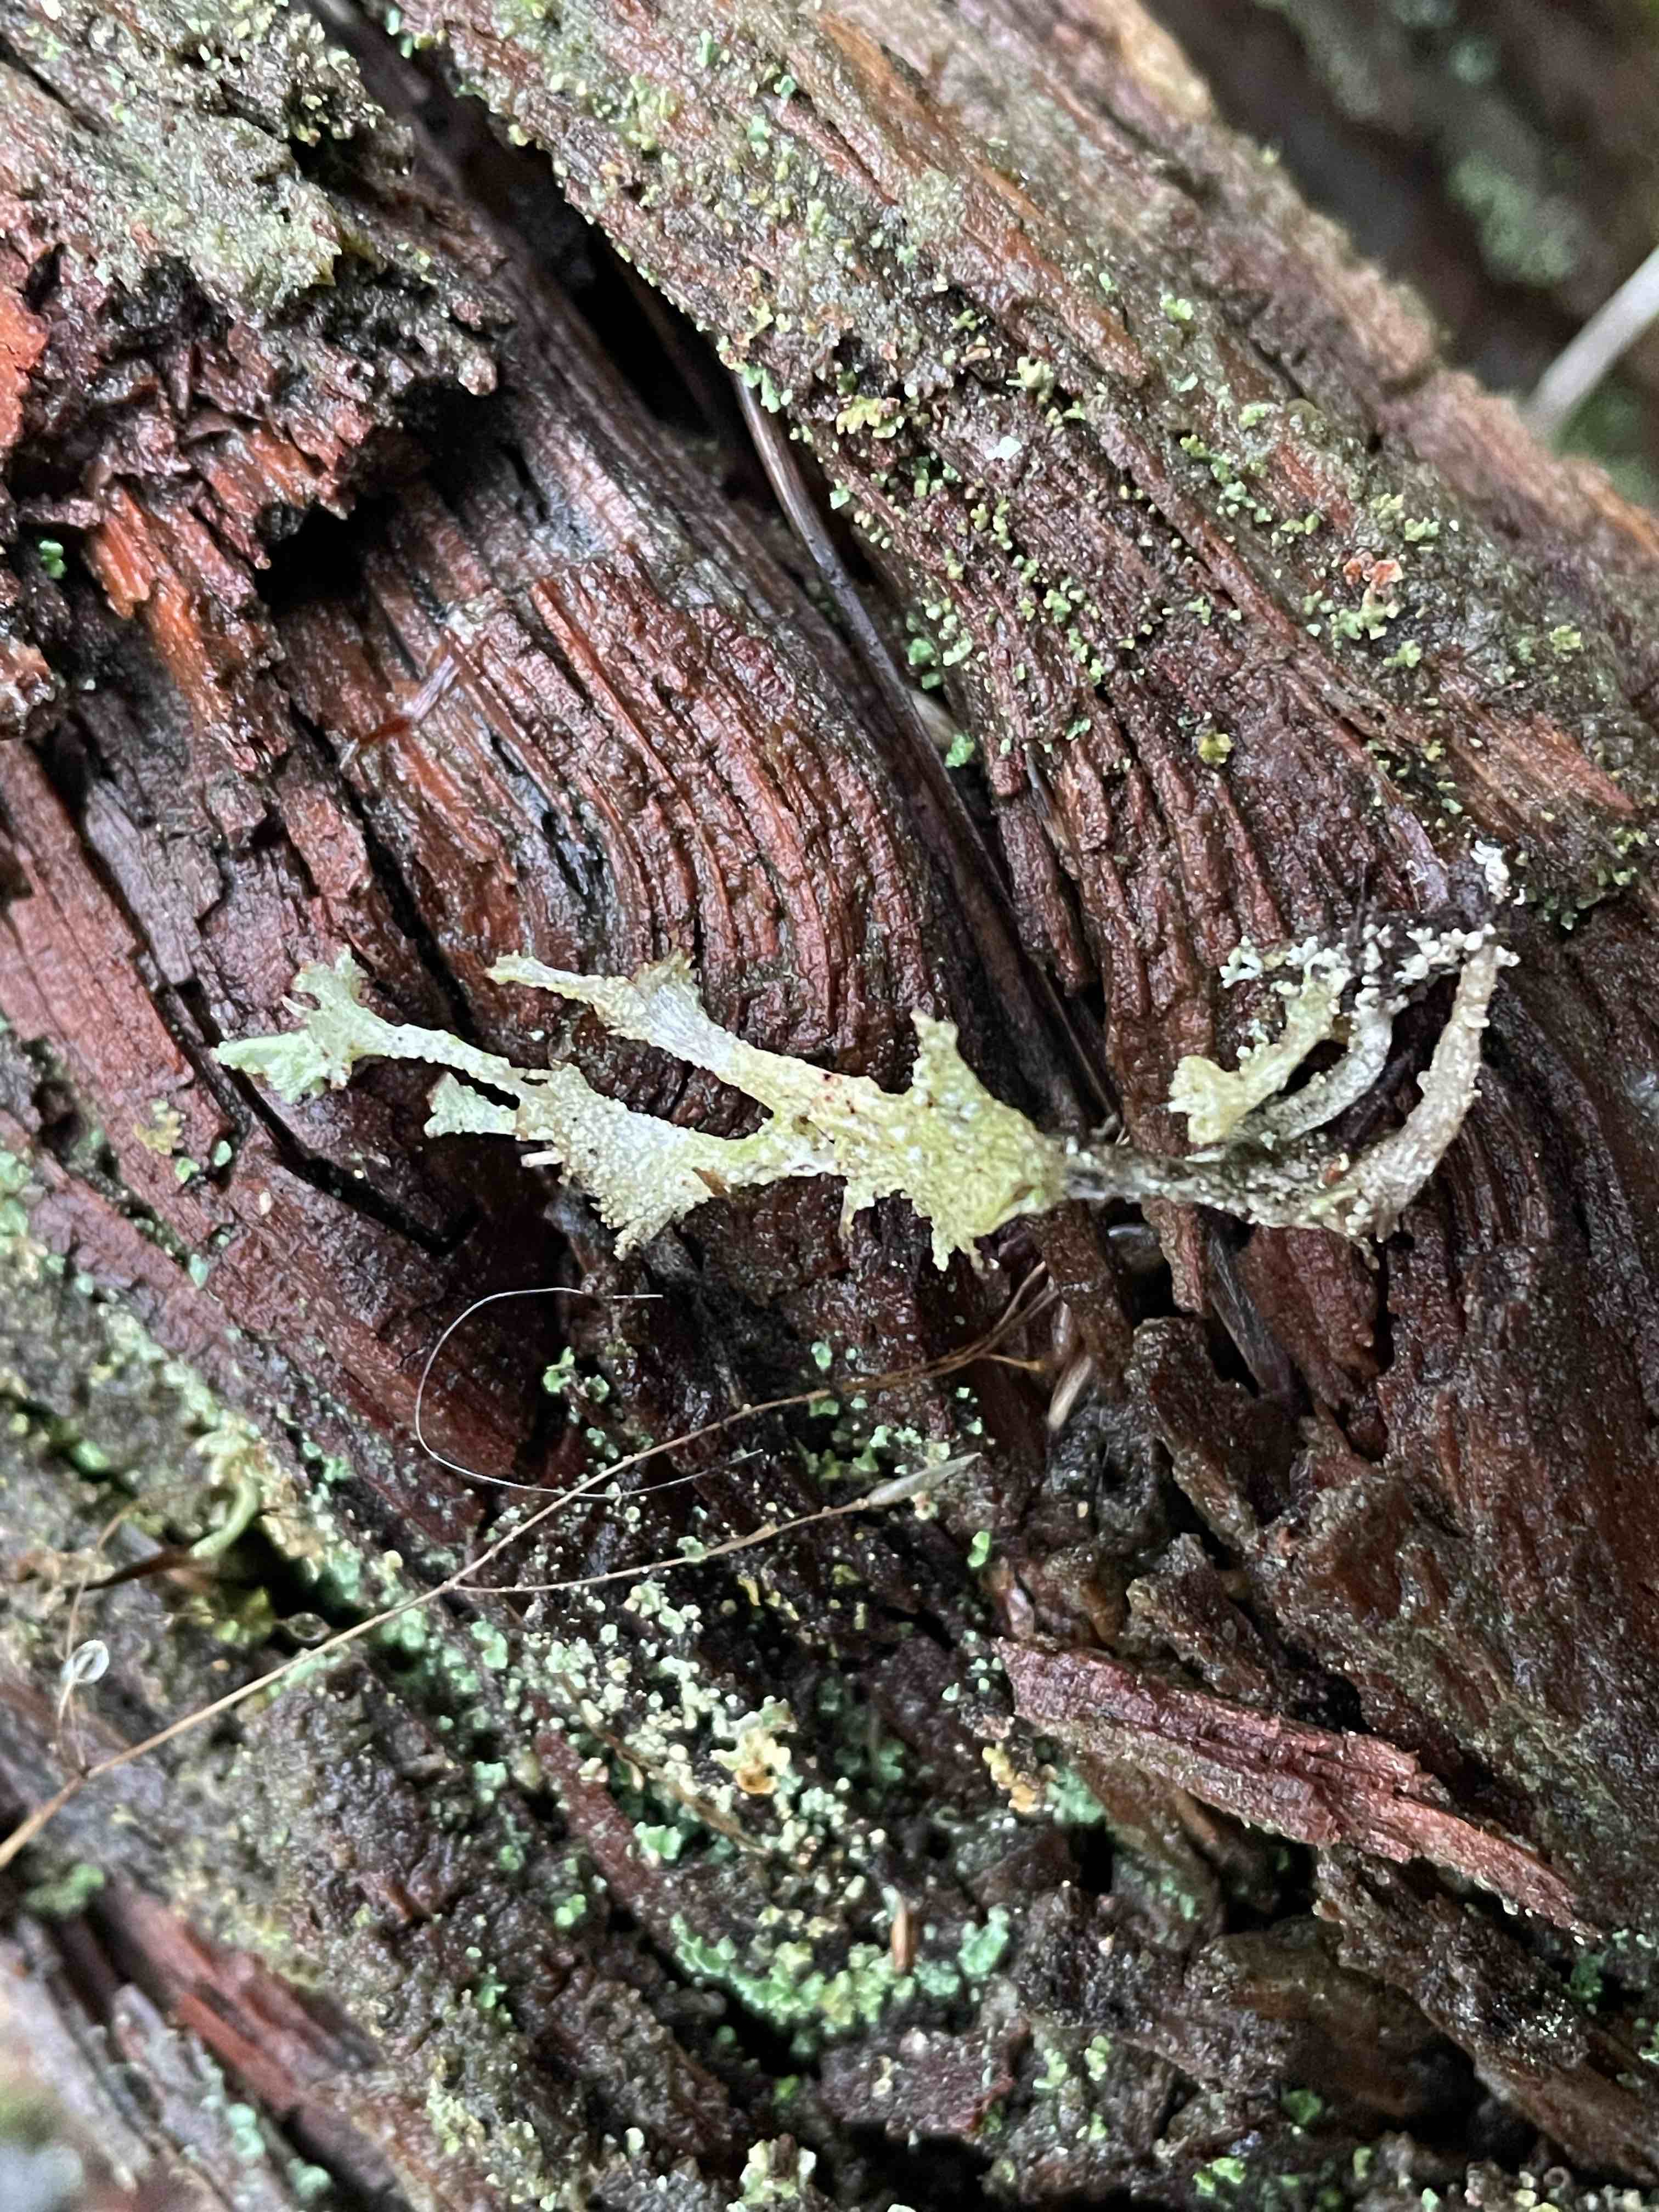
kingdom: Fungi
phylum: Ascomycota
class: Lecanoromycetes
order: Lecanorales
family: Cladoniaceae
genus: Cladonia
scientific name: Cladonia ramulosa
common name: kliddet bægerlav
